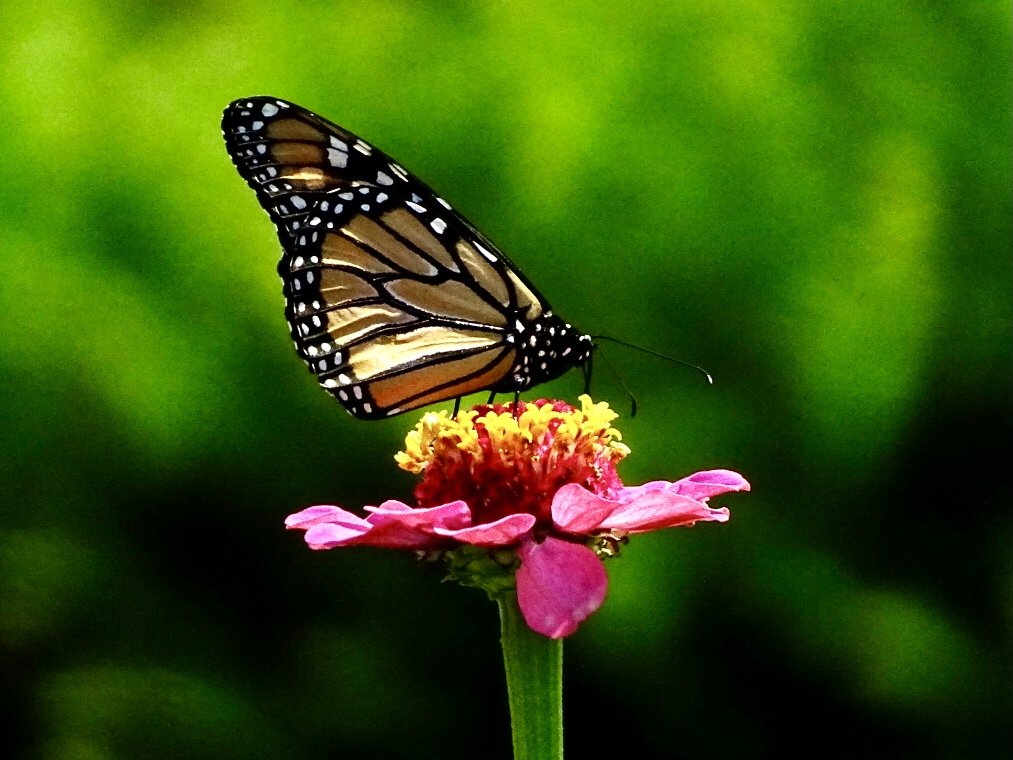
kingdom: Animalia
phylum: Arthropoda
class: Insecta
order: Lepidoptera
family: Nymphalidae
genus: Danaus
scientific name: Danaus plexippus
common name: Monarch
